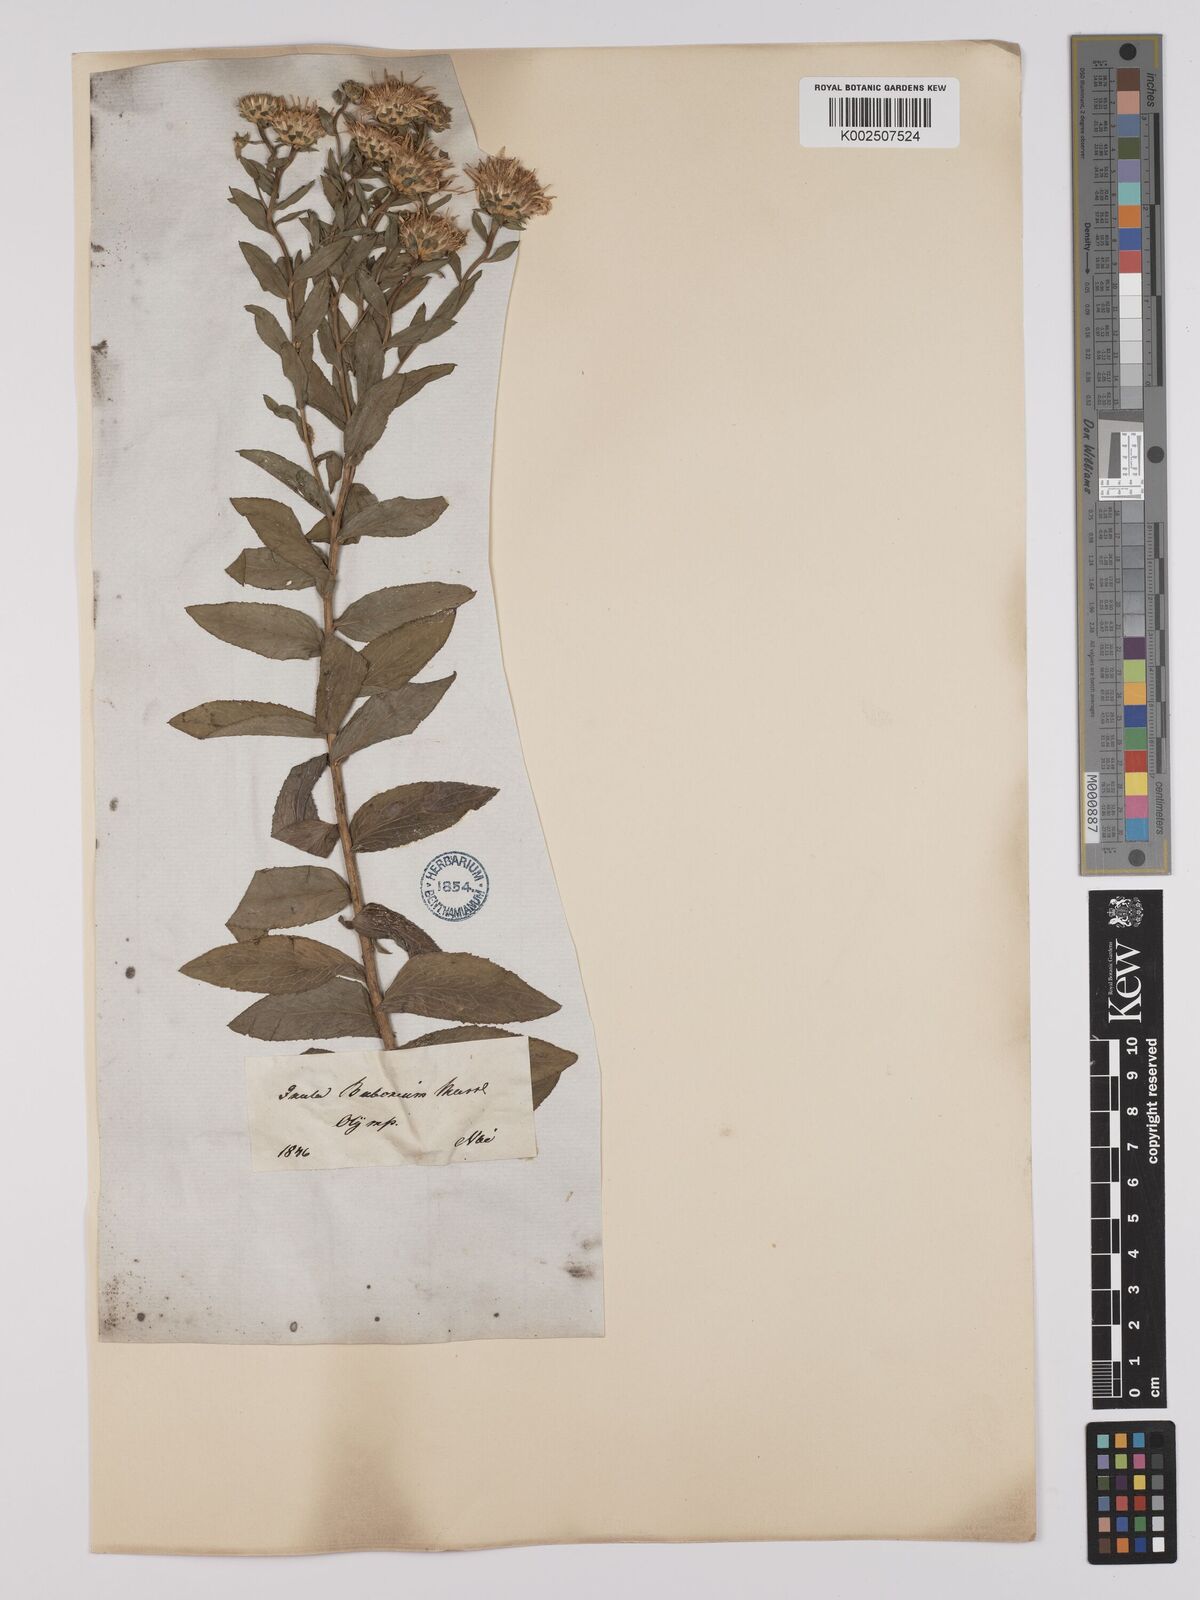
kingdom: Plantae
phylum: Tracheophyta
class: Magnoliopsida
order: Asterales
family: Asteraceae
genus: Pentanema
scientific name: Pentanema spiraeifolium
